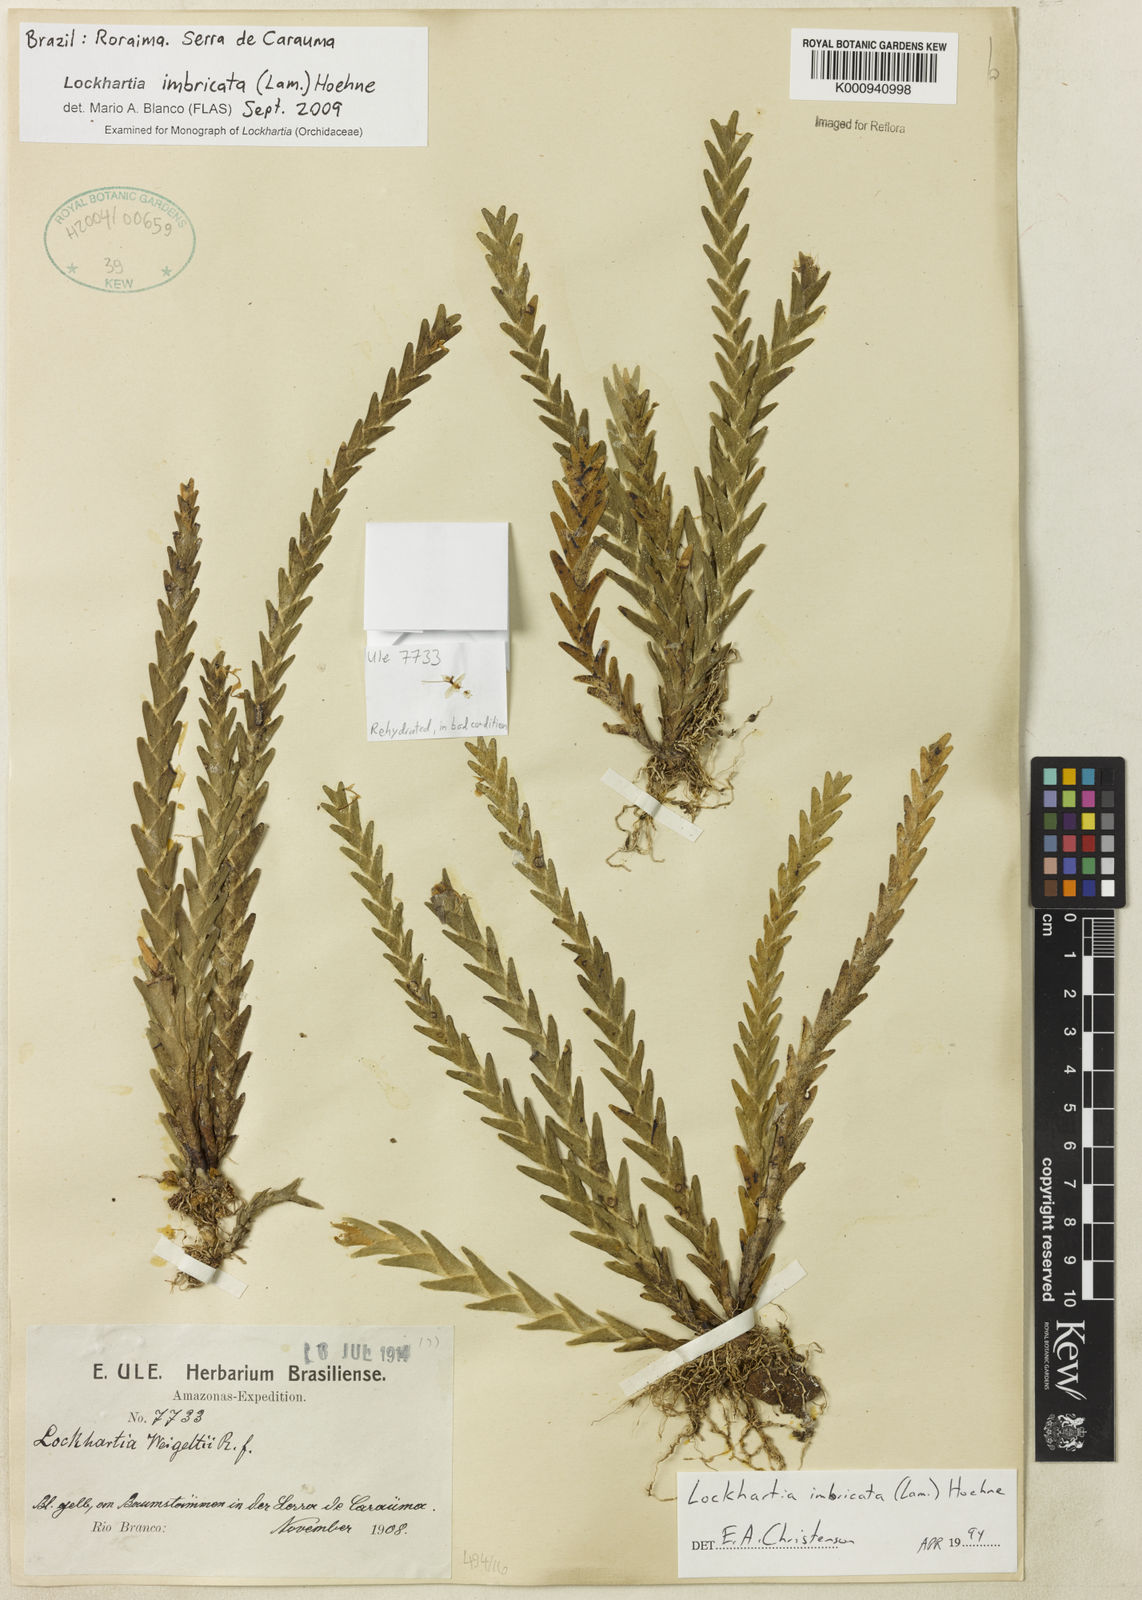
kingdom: Plantae
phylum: Tracheophyta
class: Liliopsida
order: Asparagales
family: Orchidaceae
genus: Lockhartia
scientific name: Lockhartia imbricata
